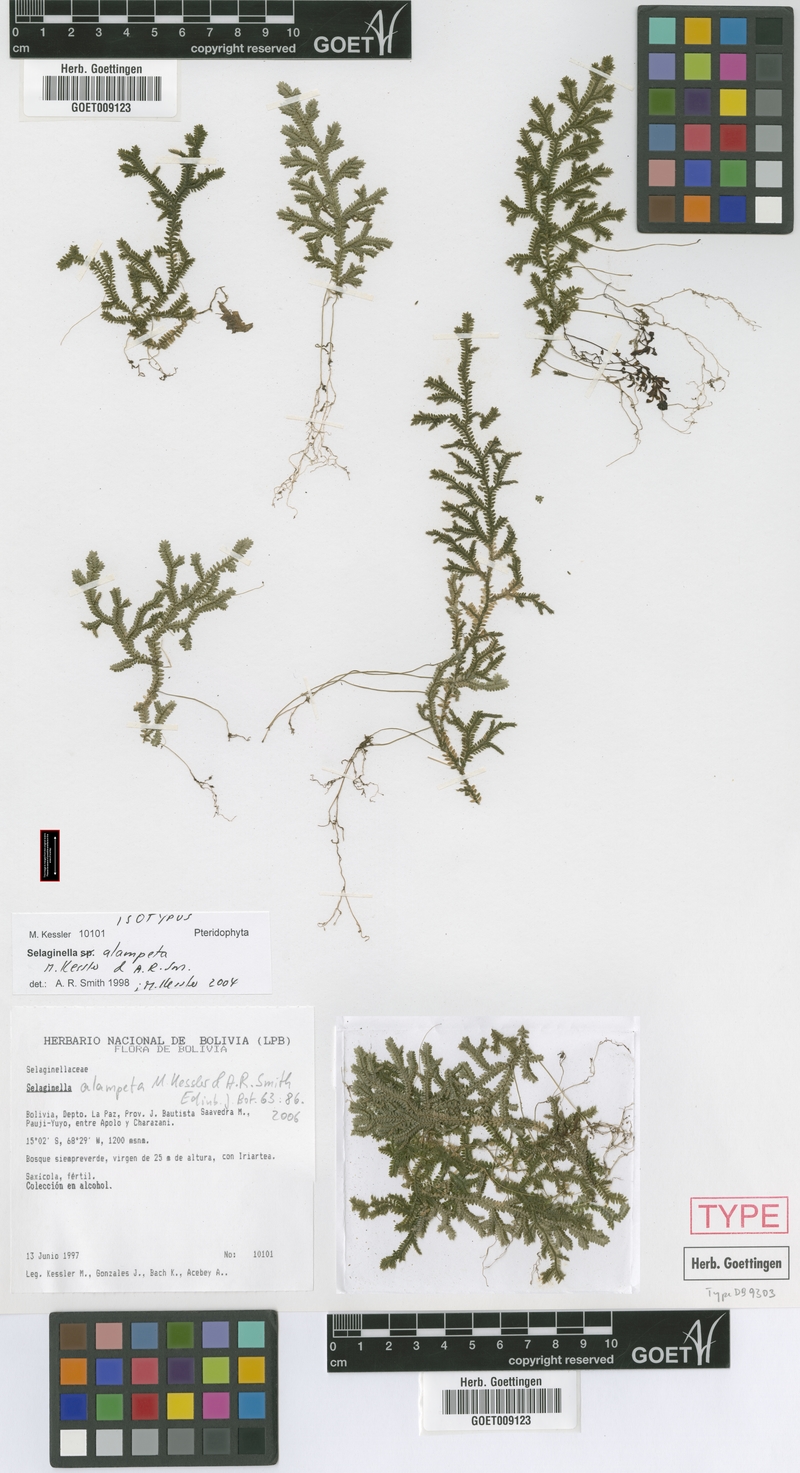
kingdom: Plantae
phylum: Tracheophyta
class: Lycopodiopsida
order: Selaginellales
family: Selaginellaceae
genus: Selaginella
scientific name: Selaginella alampeta
